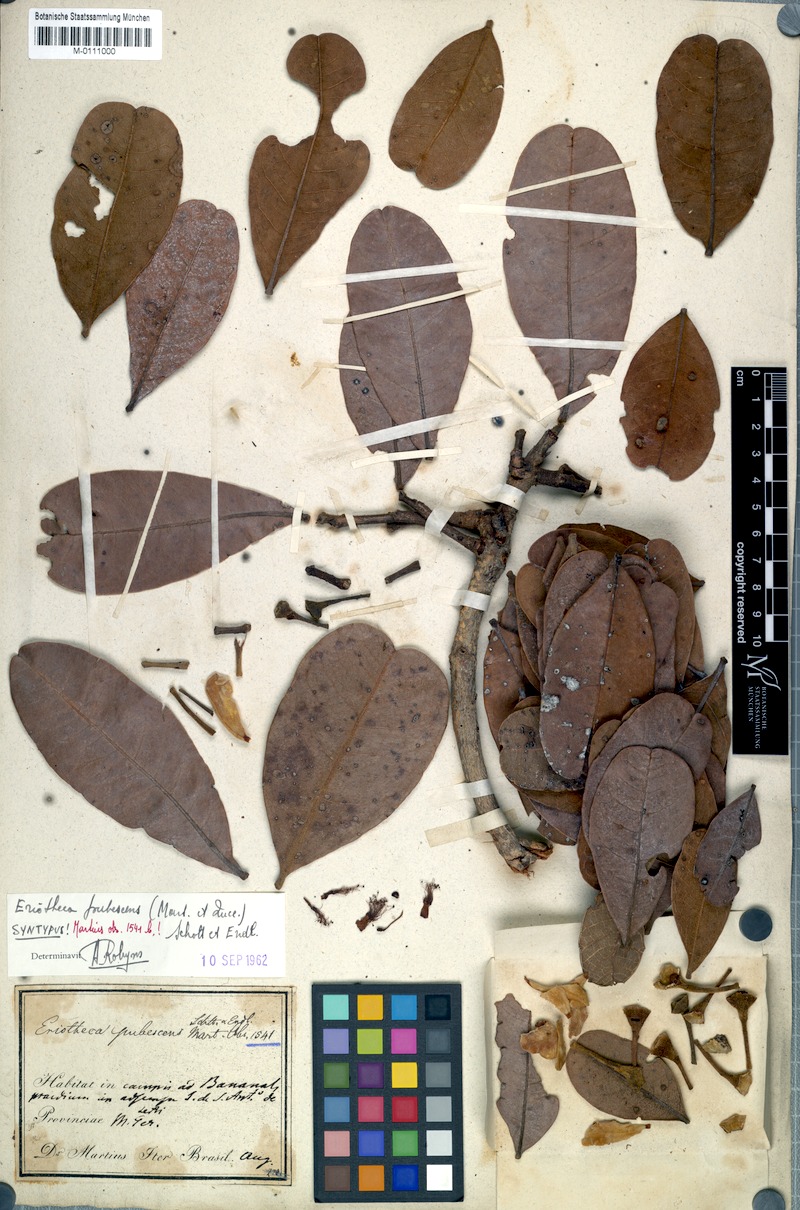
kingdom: Plantae
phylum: Tracheophyta
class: Magnoliopsida
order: Malvales
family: Malvaceae
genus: Eriotheca
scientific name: Eriotheca pubescens
